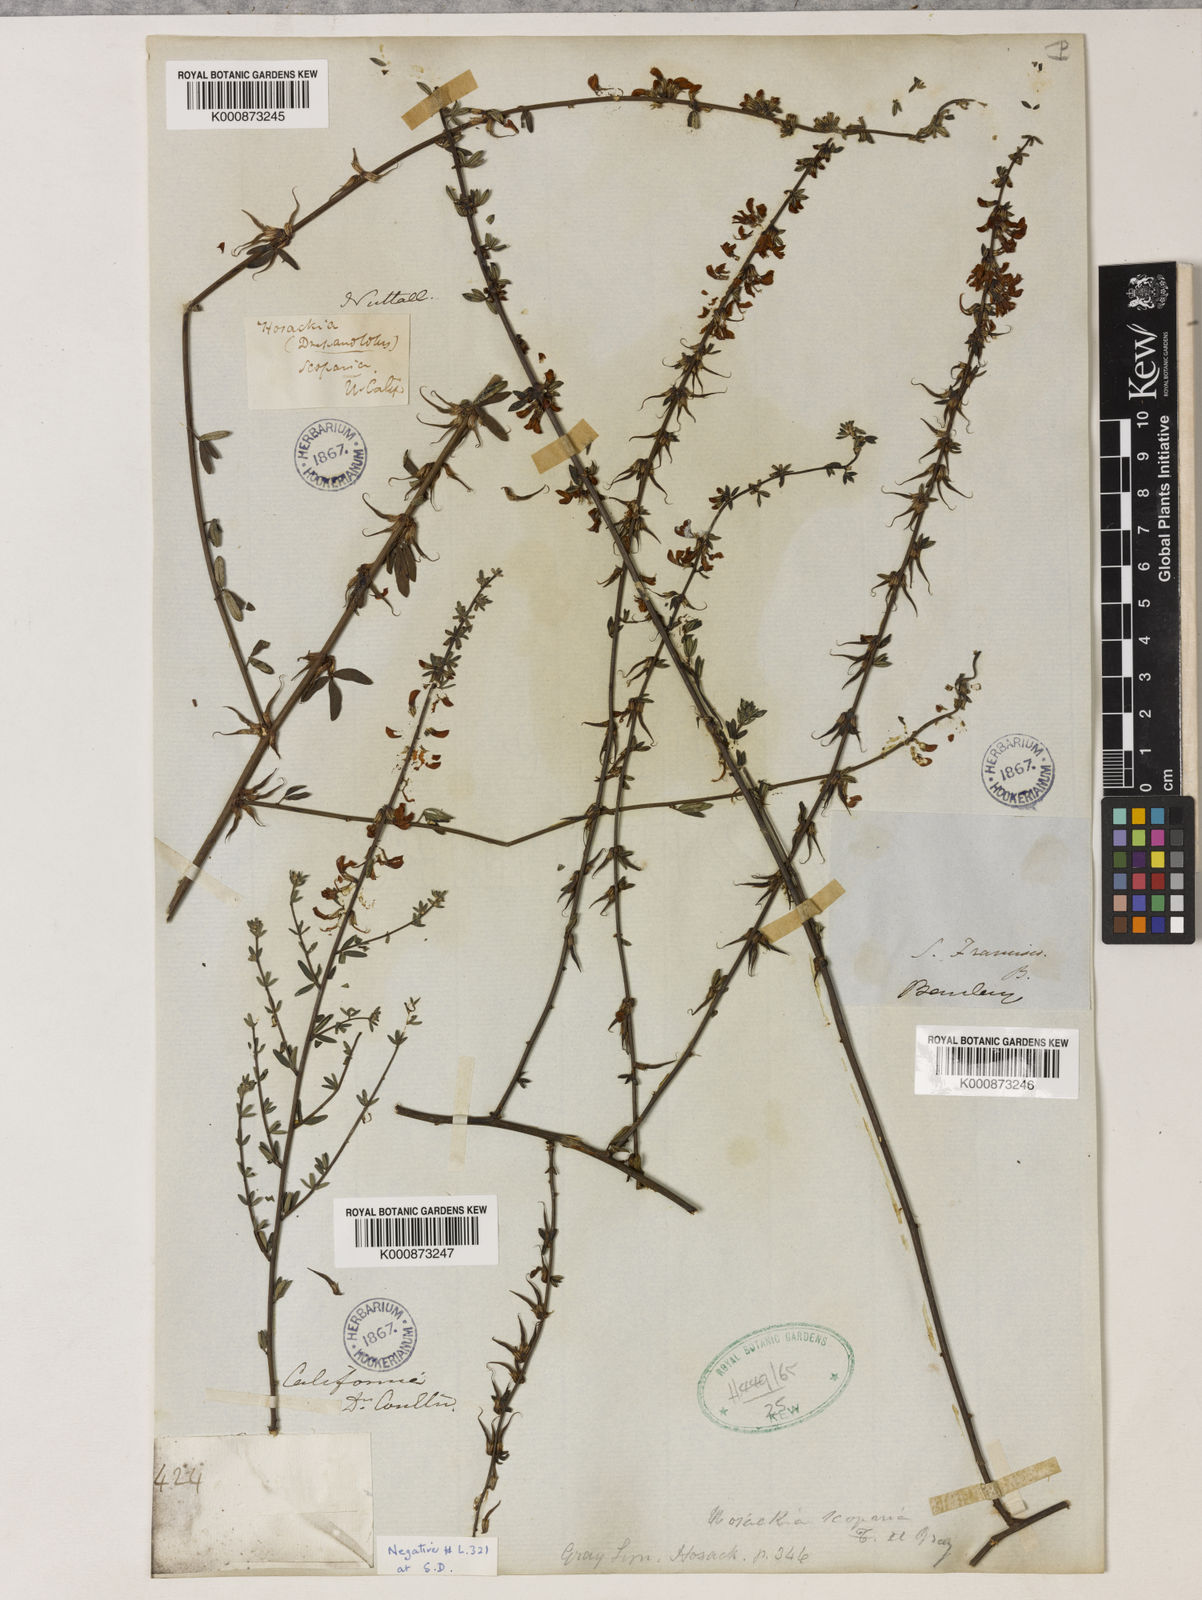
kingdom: Plantae
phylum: Tracheophyta
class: Magnoliopsida
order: Fabales
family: Fabaceae
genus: Acmispon
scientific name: Acmispon glaber
